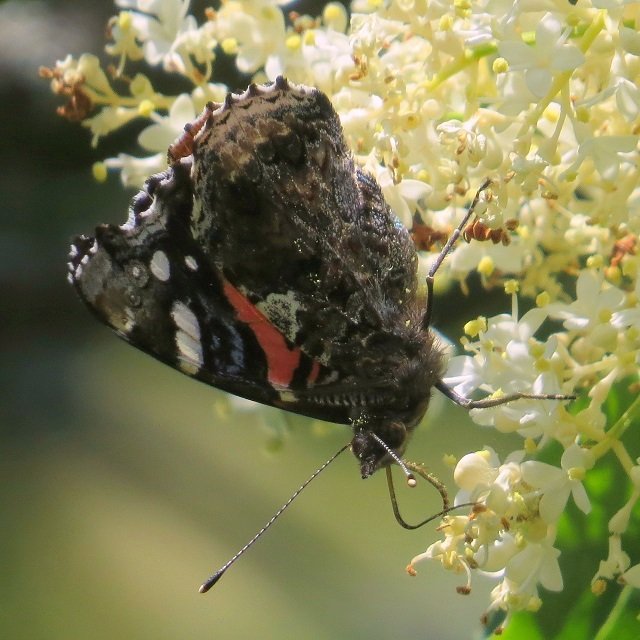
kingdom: Animalia
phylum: Arthropoda
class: Insecta
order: Lepidoptera
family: Nymphalidae
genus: Vanessa
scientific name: Vanessa atalanta
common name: Red Admiral
